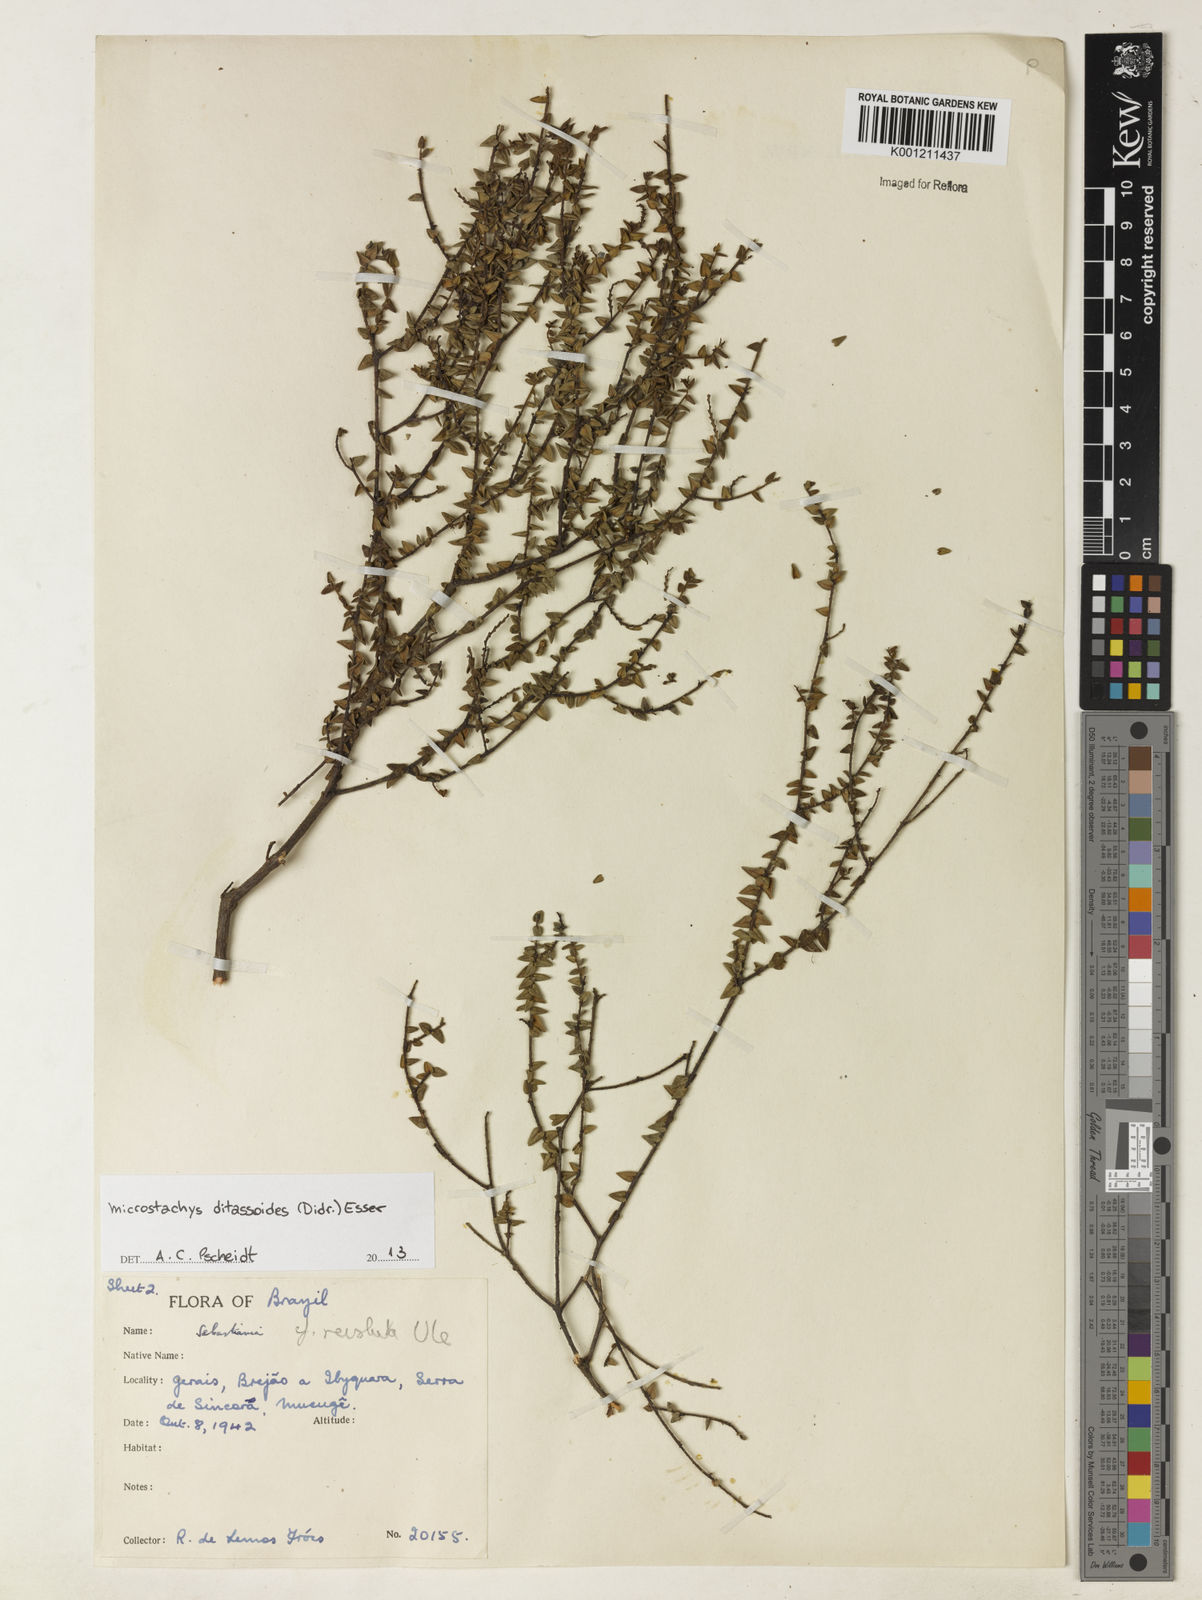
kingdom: Plantae
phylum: Tracheophyta
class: Magnoliopsida
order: Malpighiales
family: Euphorbiaceae
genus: Microstachys
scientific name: Microstachys ditassoides
